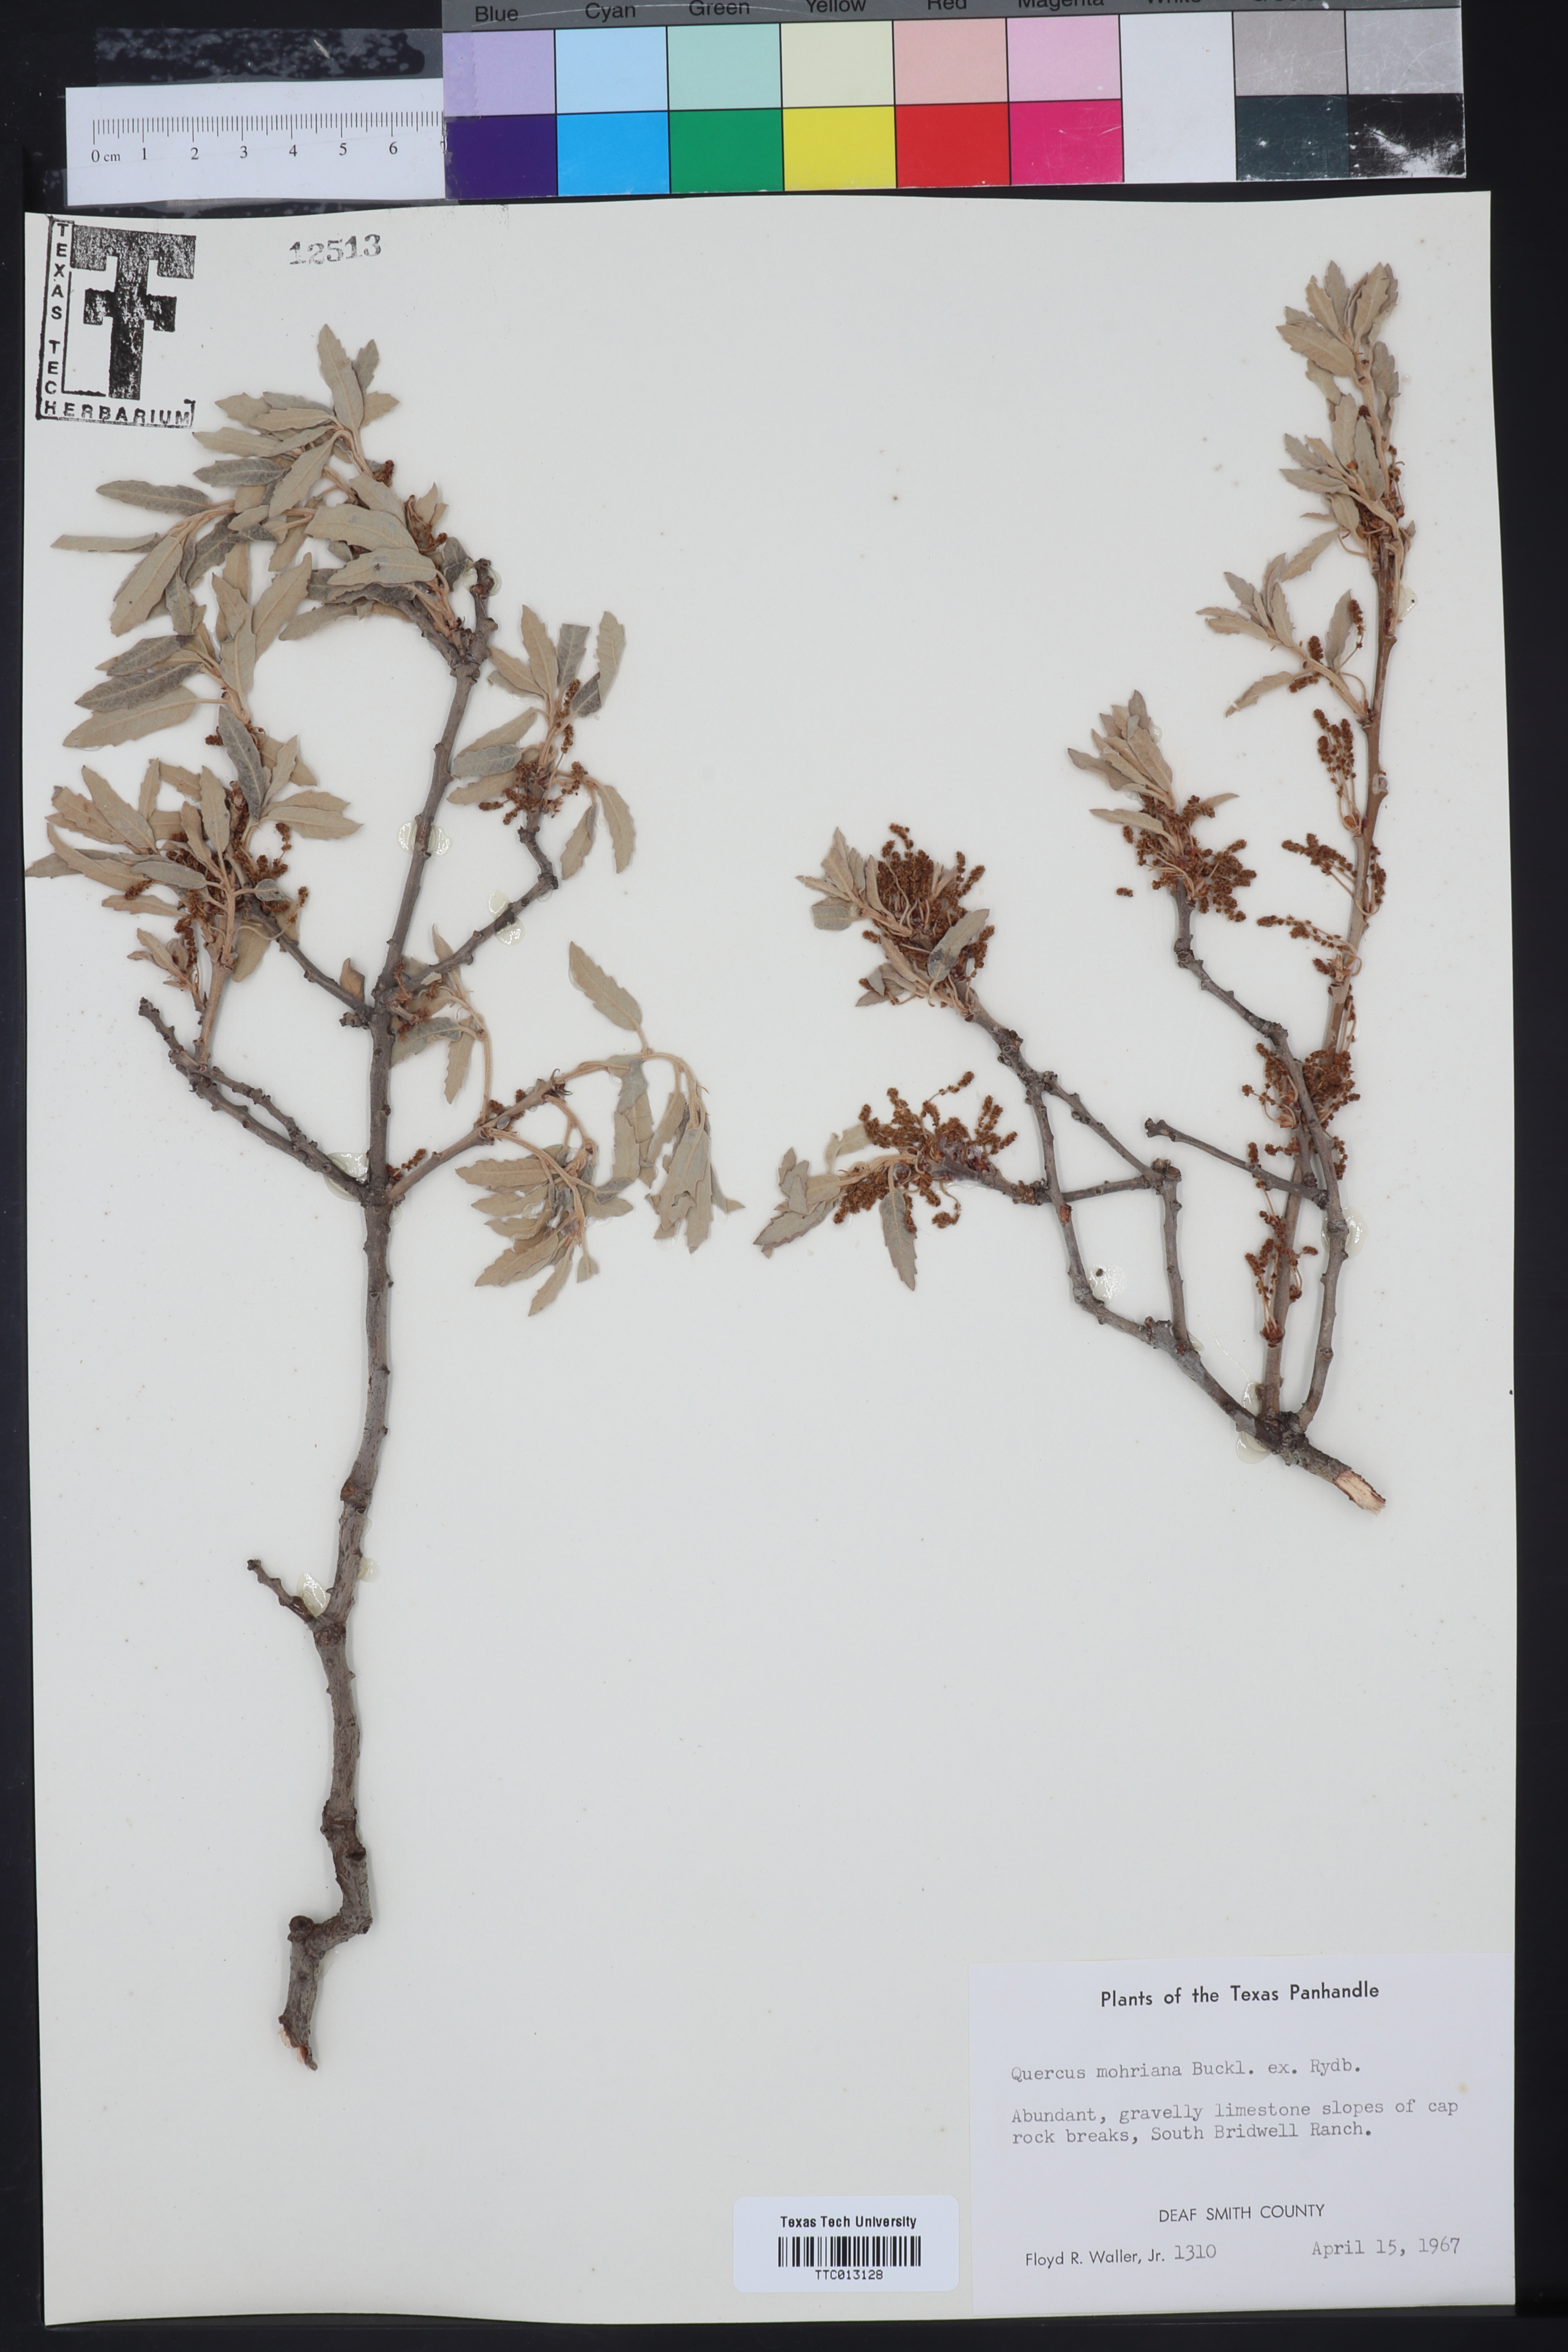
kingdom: Plantae
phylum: Tracheophyta
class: Magnoliopsida
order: Fagales
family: Fagaceae
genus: Quercus
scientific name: Quercus mohriana
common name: Mohr oak
